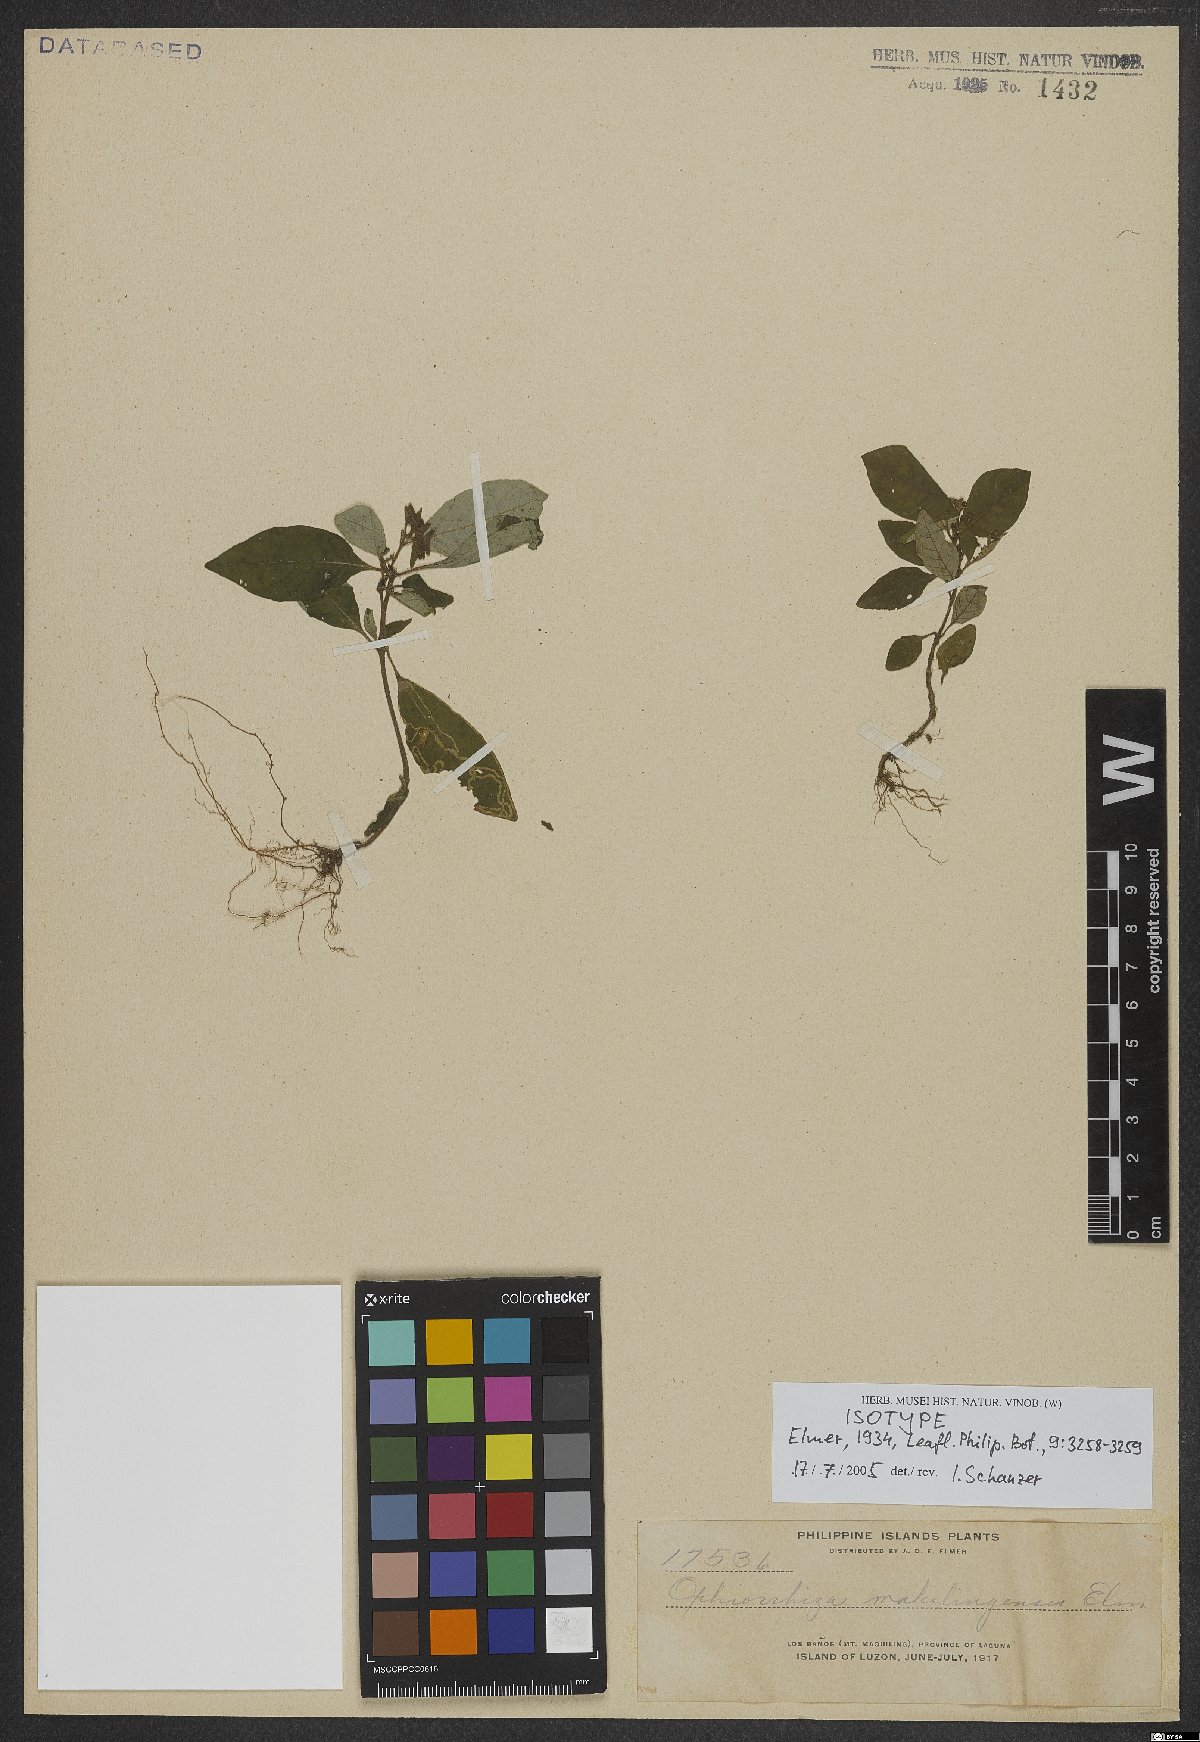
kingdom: Plantae
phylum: Tracheophyta
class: Magnoliopsida
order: Gentianales
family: Rubiaceae
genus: Ophiorrhiza
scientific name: Ophiorrhiza maquilingensis
